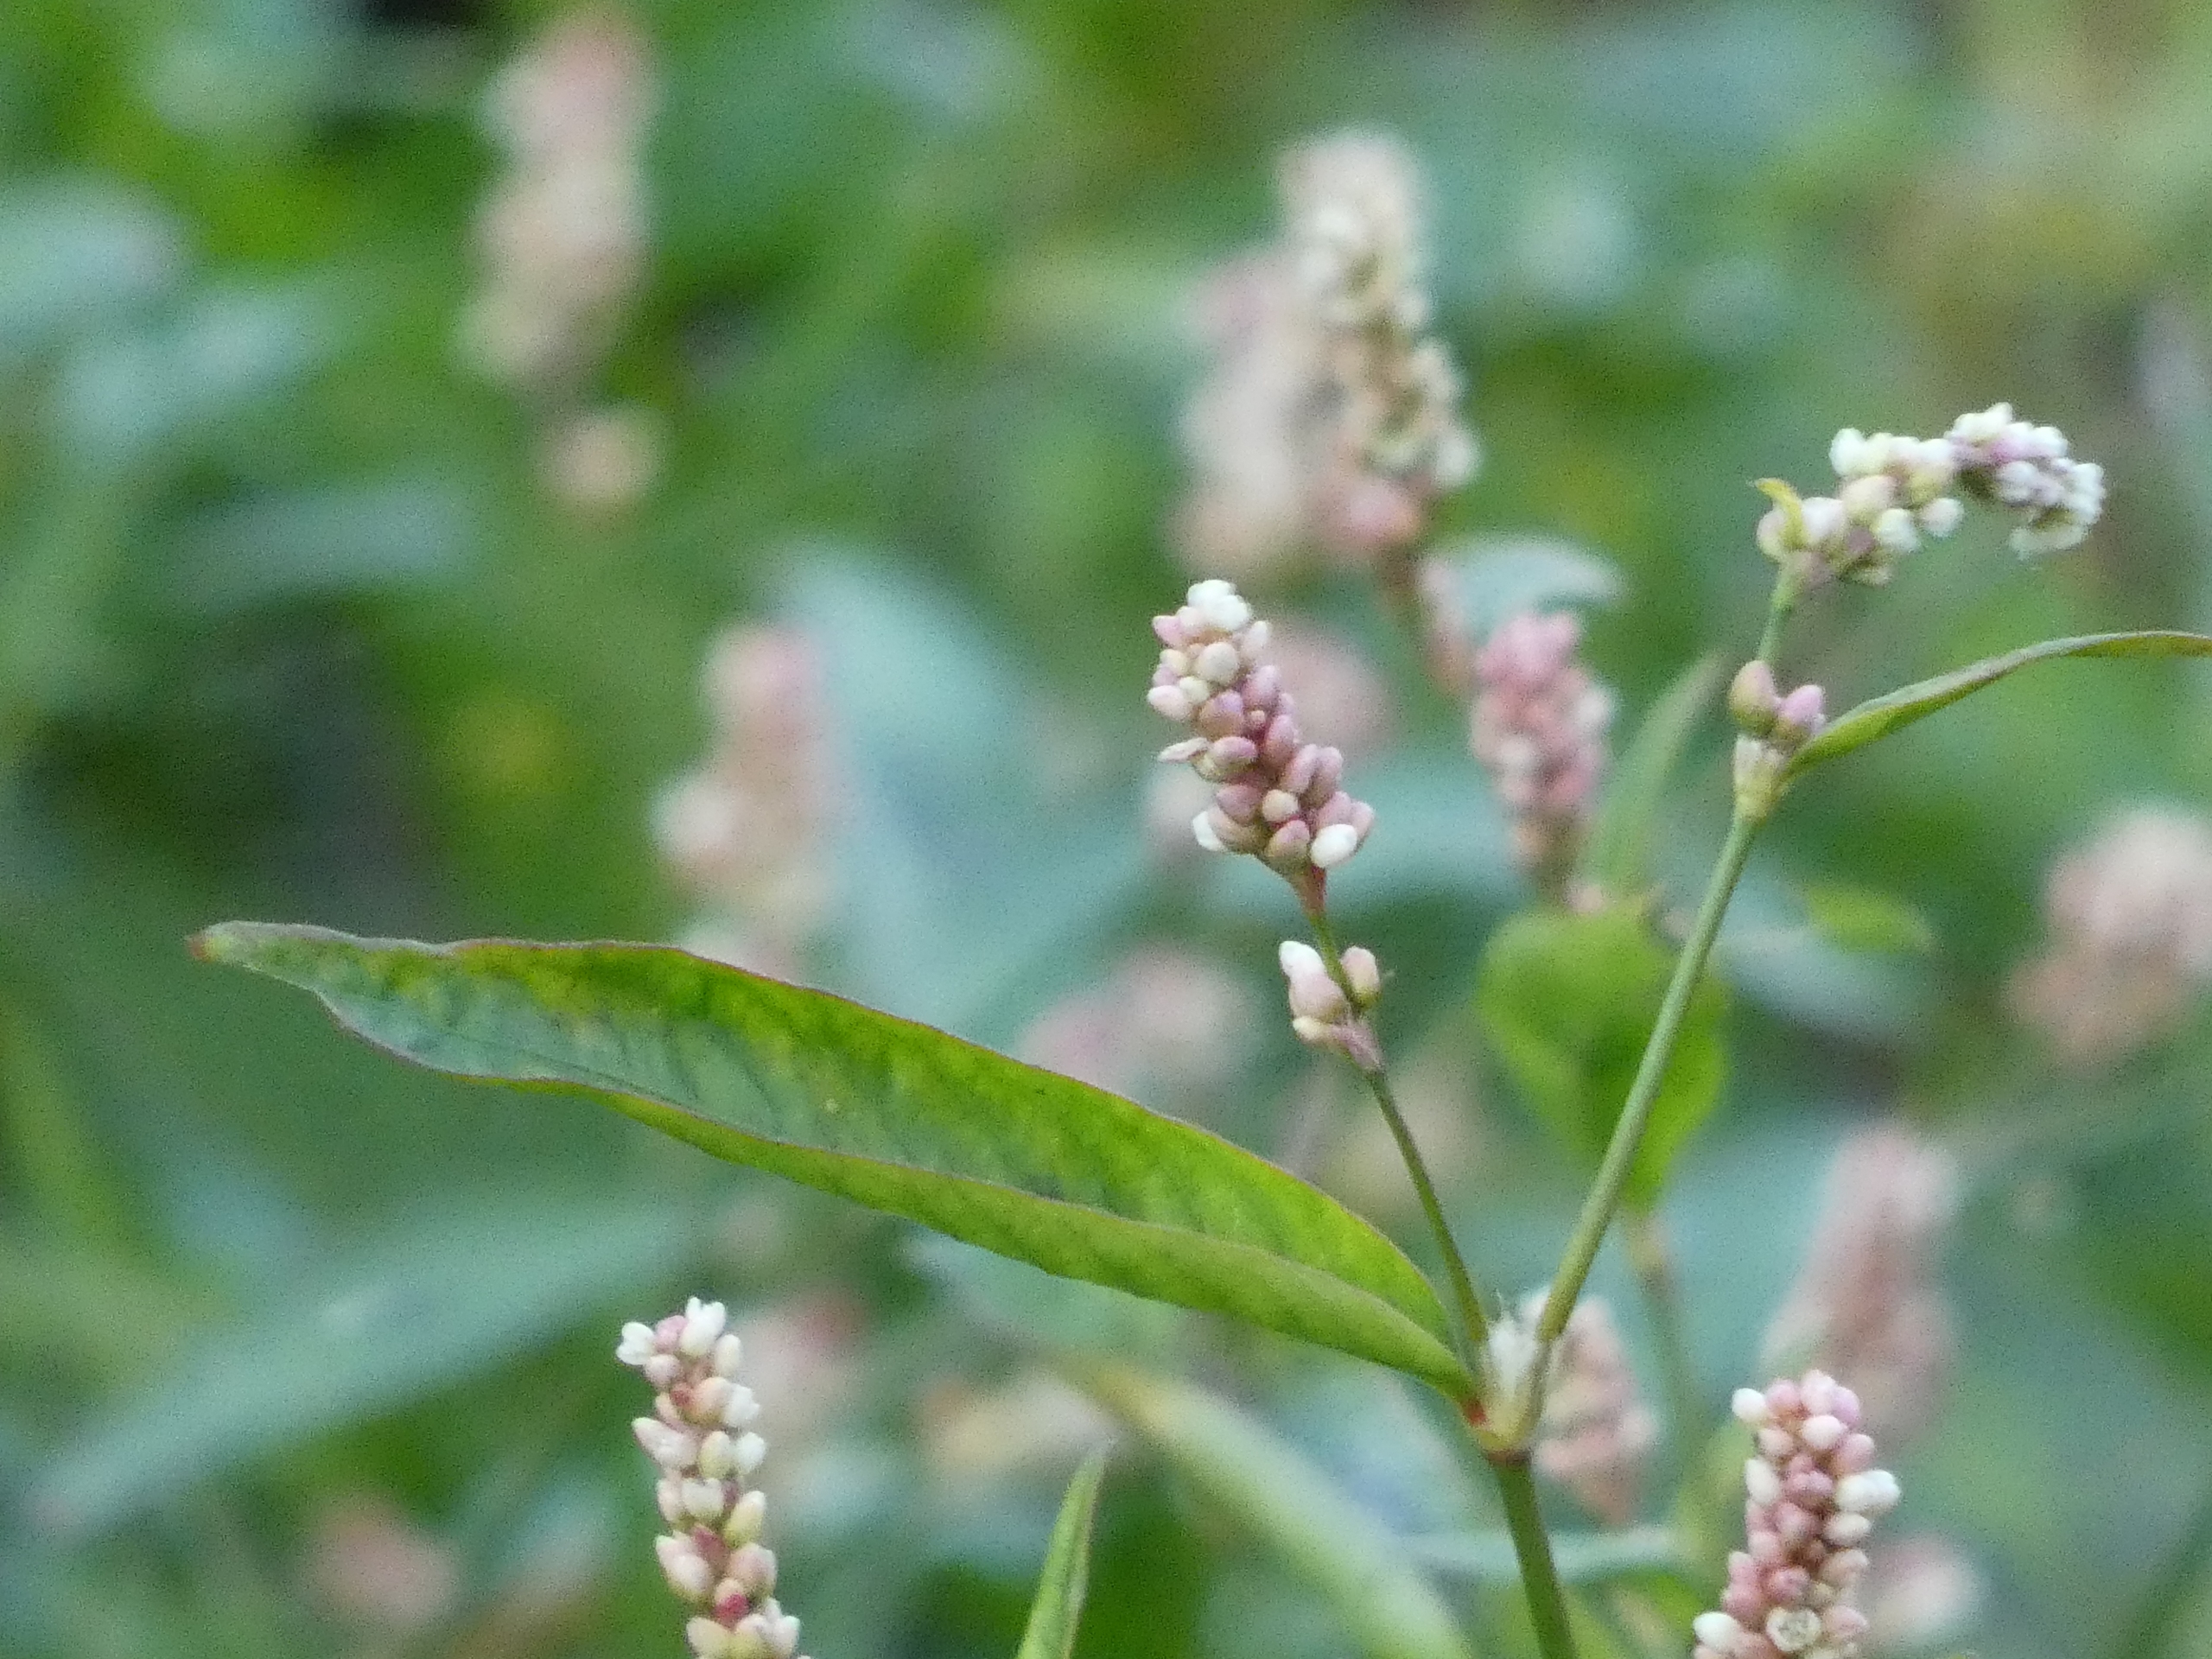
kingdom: Plantae
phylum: Tracheophyta
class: Magnoliopsida
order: Caryophyllales
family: Polygonaceae
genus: Persicaria
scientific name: Persicaria maculosa
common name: Fersken-pileurt
